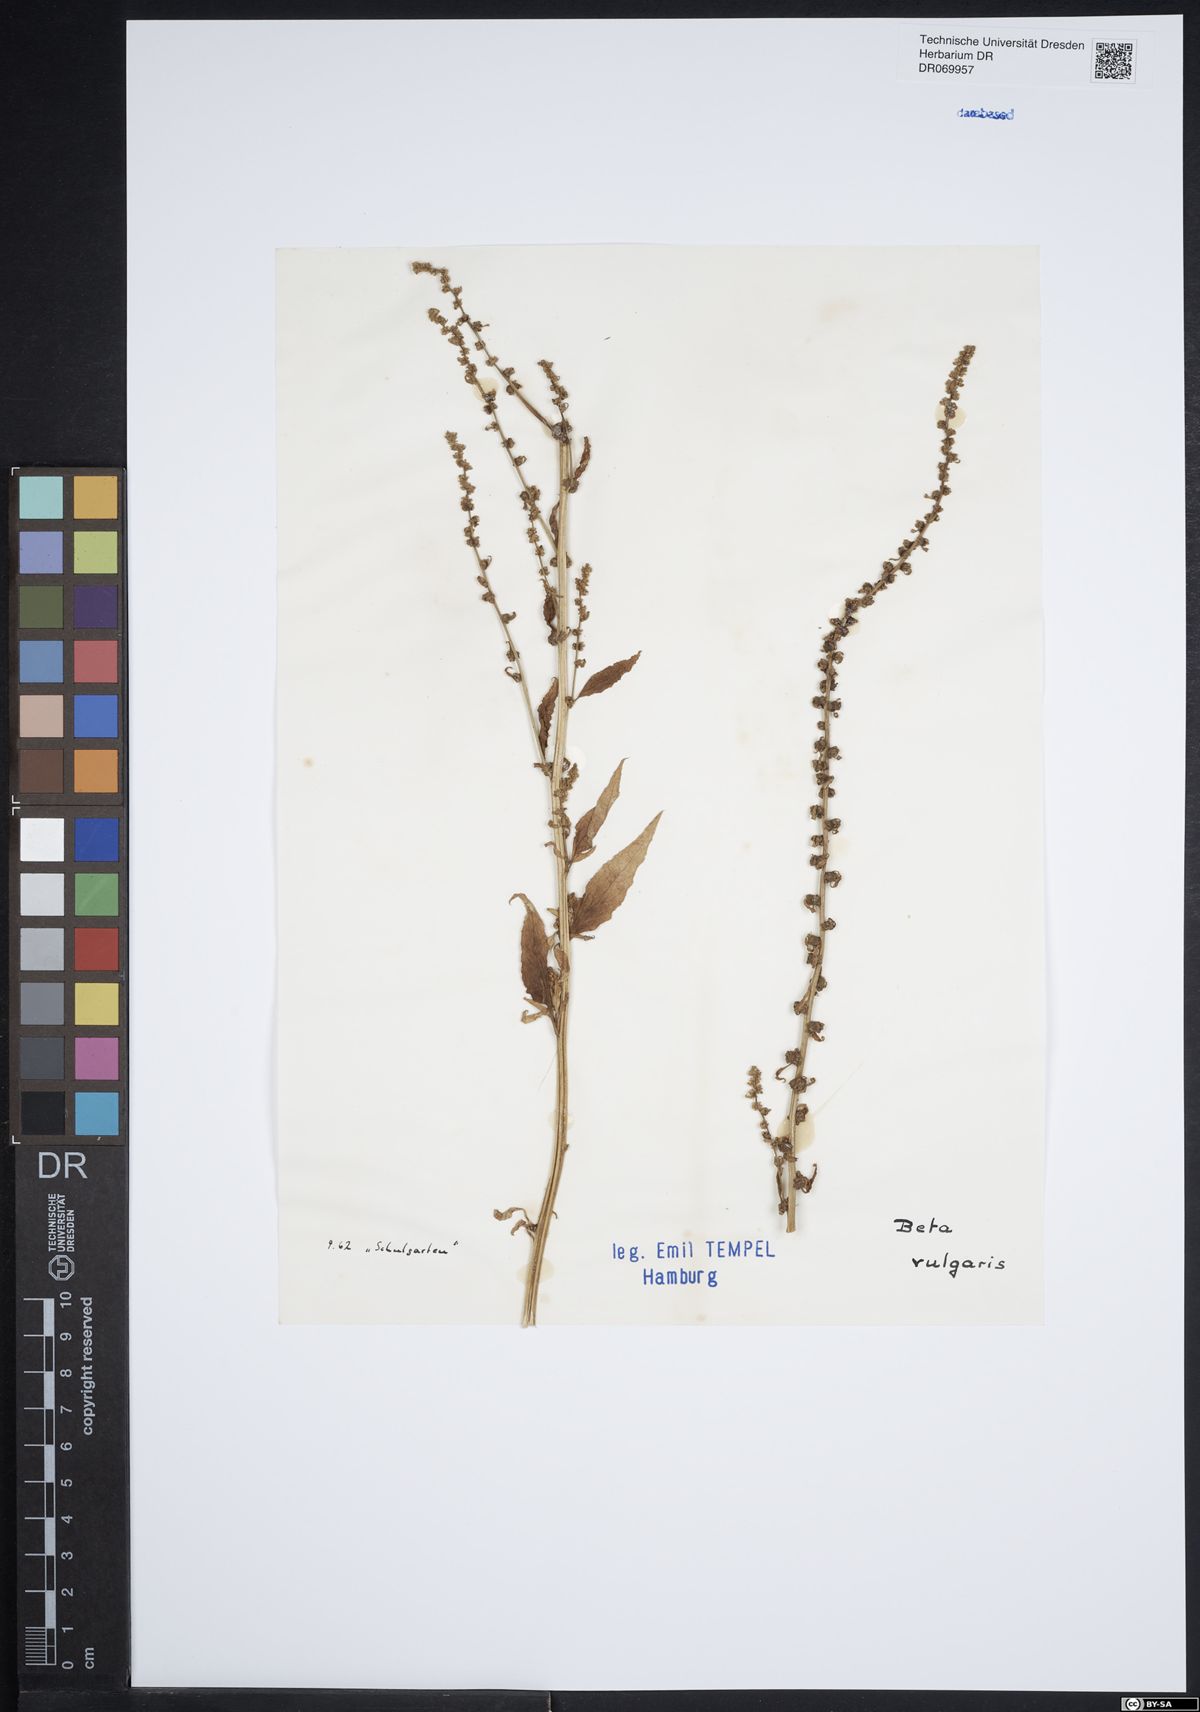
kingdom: Plantae
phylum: Tracheophyta
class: Magnoliopsida
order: Caryophyllales
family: Amaranthaceae
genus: Beta
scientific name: Beta vulgaris
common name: Beet
